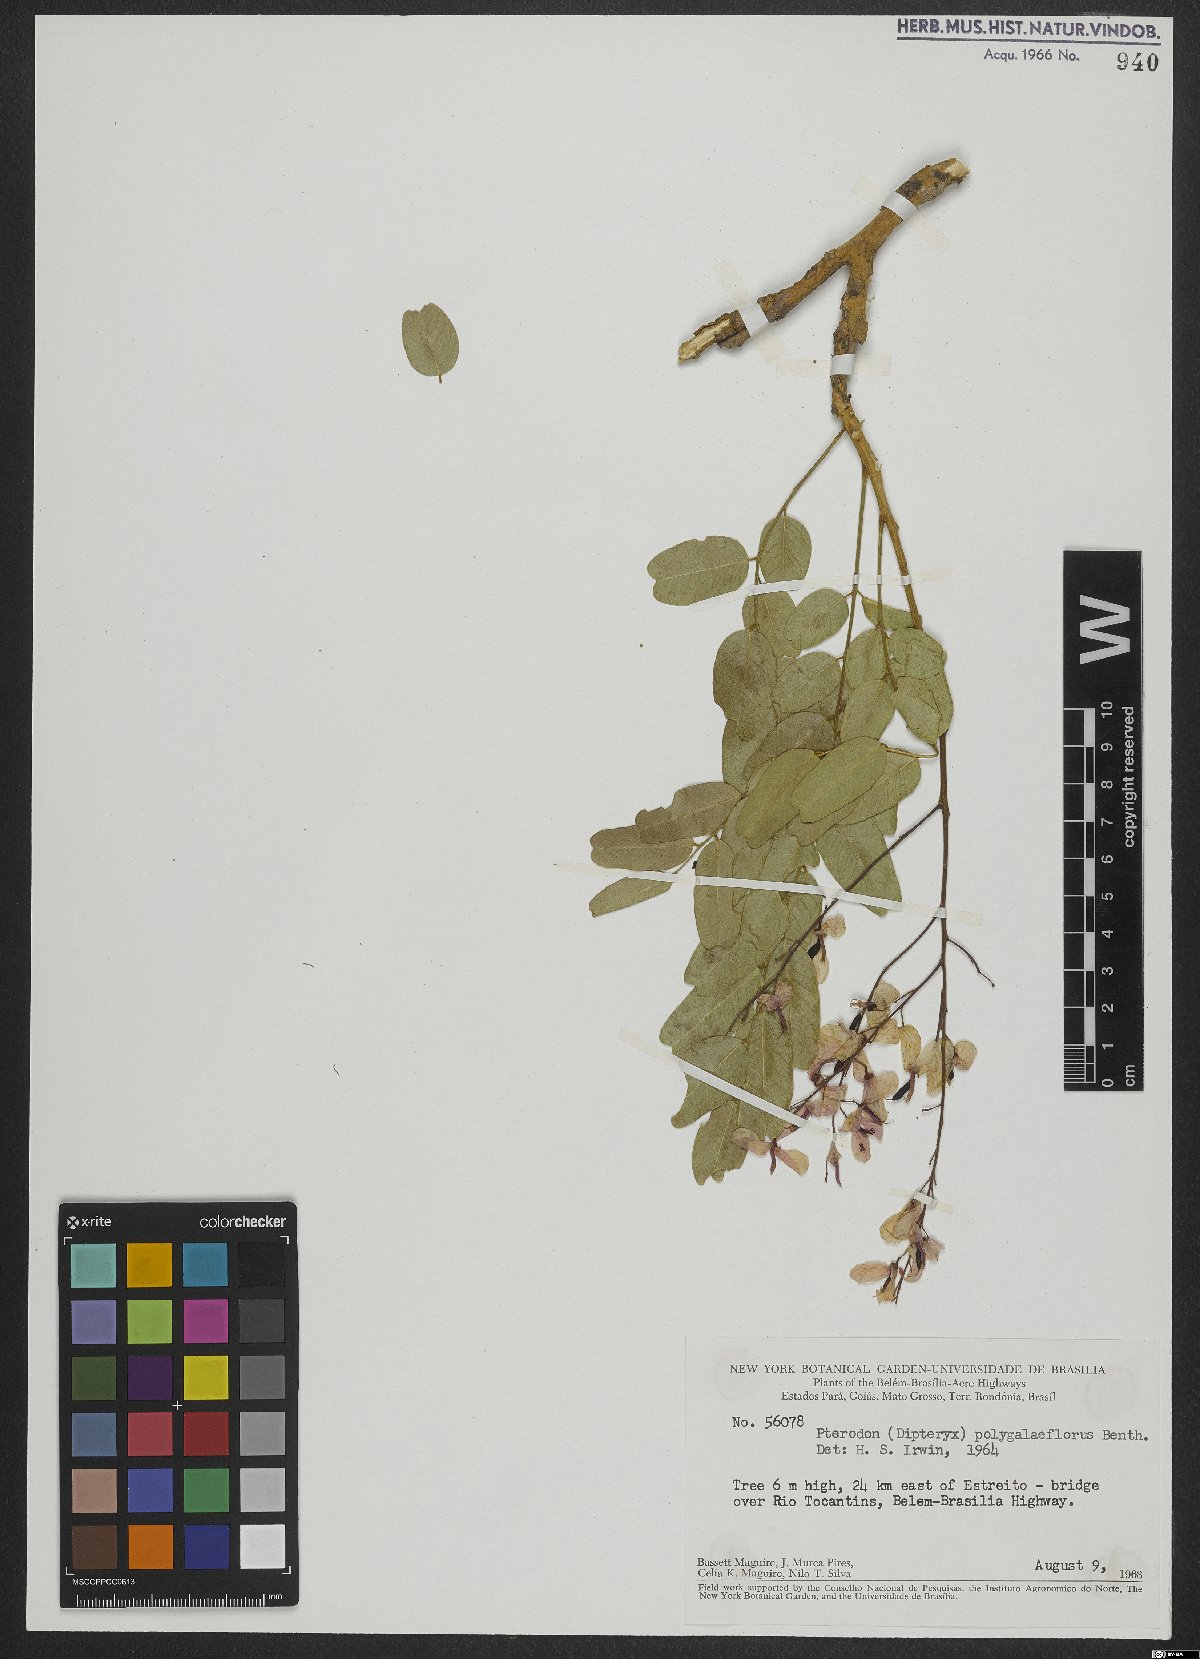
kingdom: Plantae
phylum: Tracheophyta
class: Magnoliopsida
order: Fabales
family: Fabaceae
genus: Pterodon
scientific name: Pterodon emarginatus
